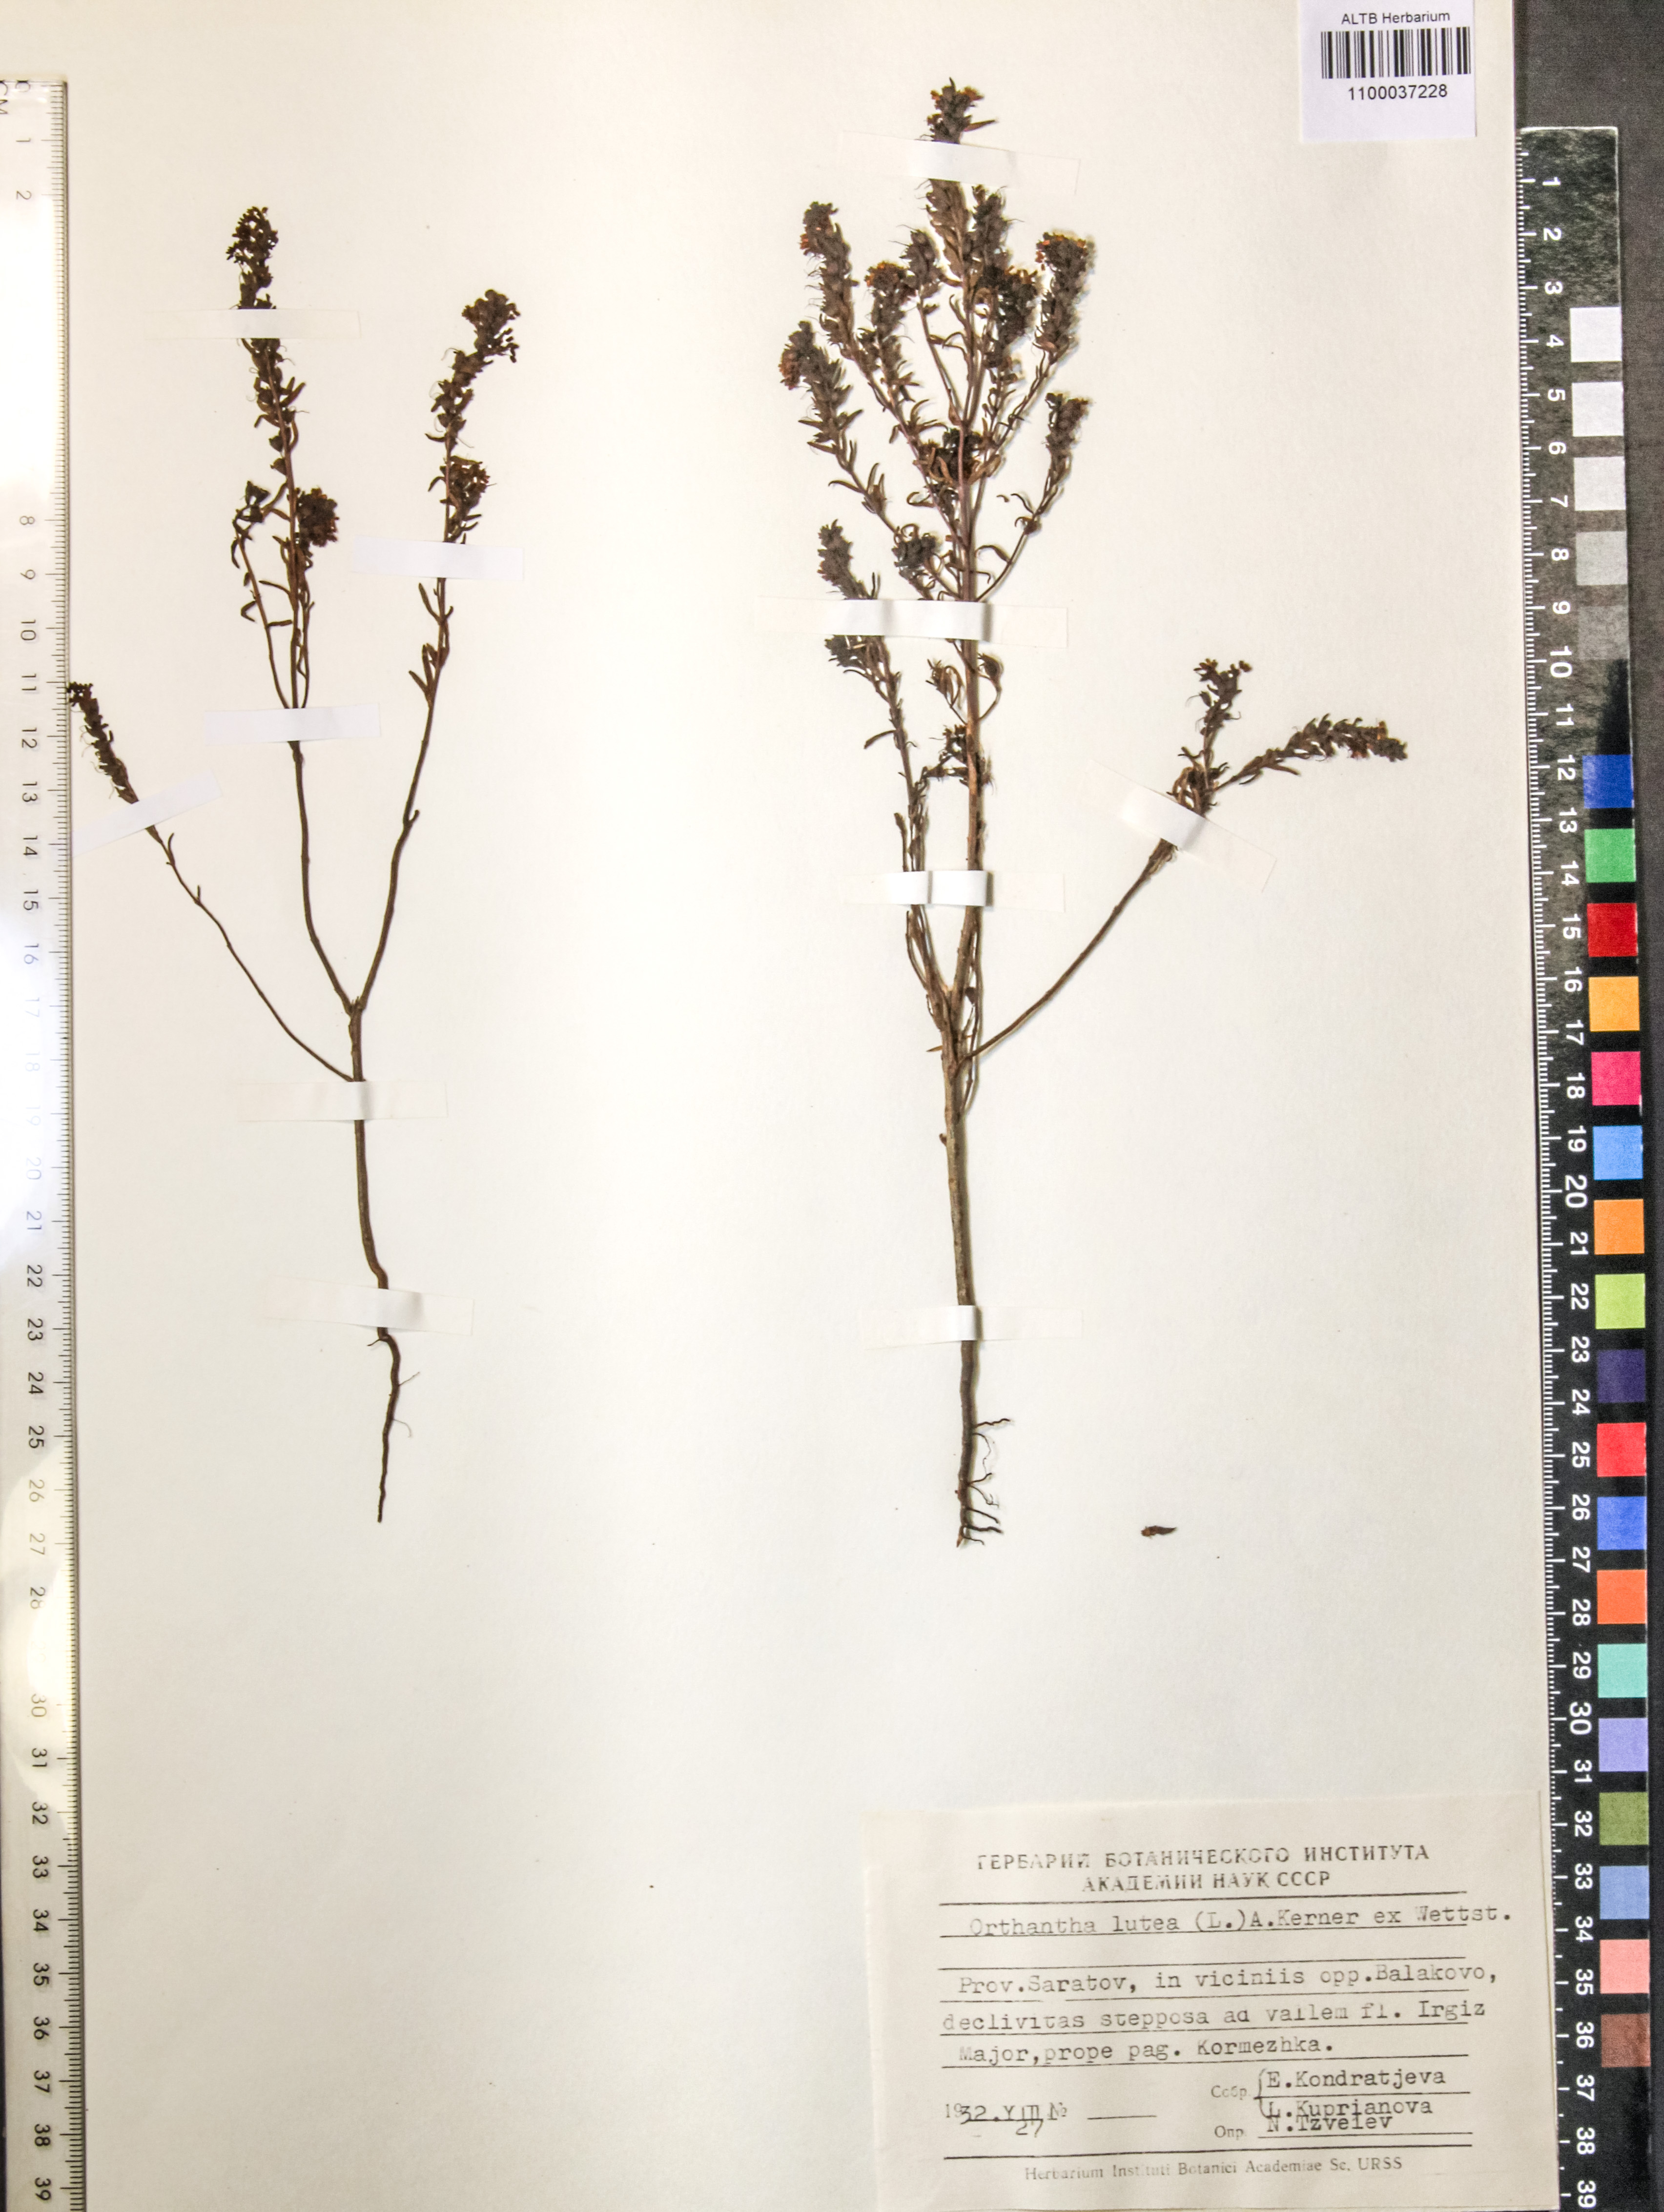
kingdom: Plantae
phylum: Tracheophyta
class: Magnoliopsida
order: Lamiales
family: Orobanchaceae
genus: Odontites
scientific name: Odontites luteus
